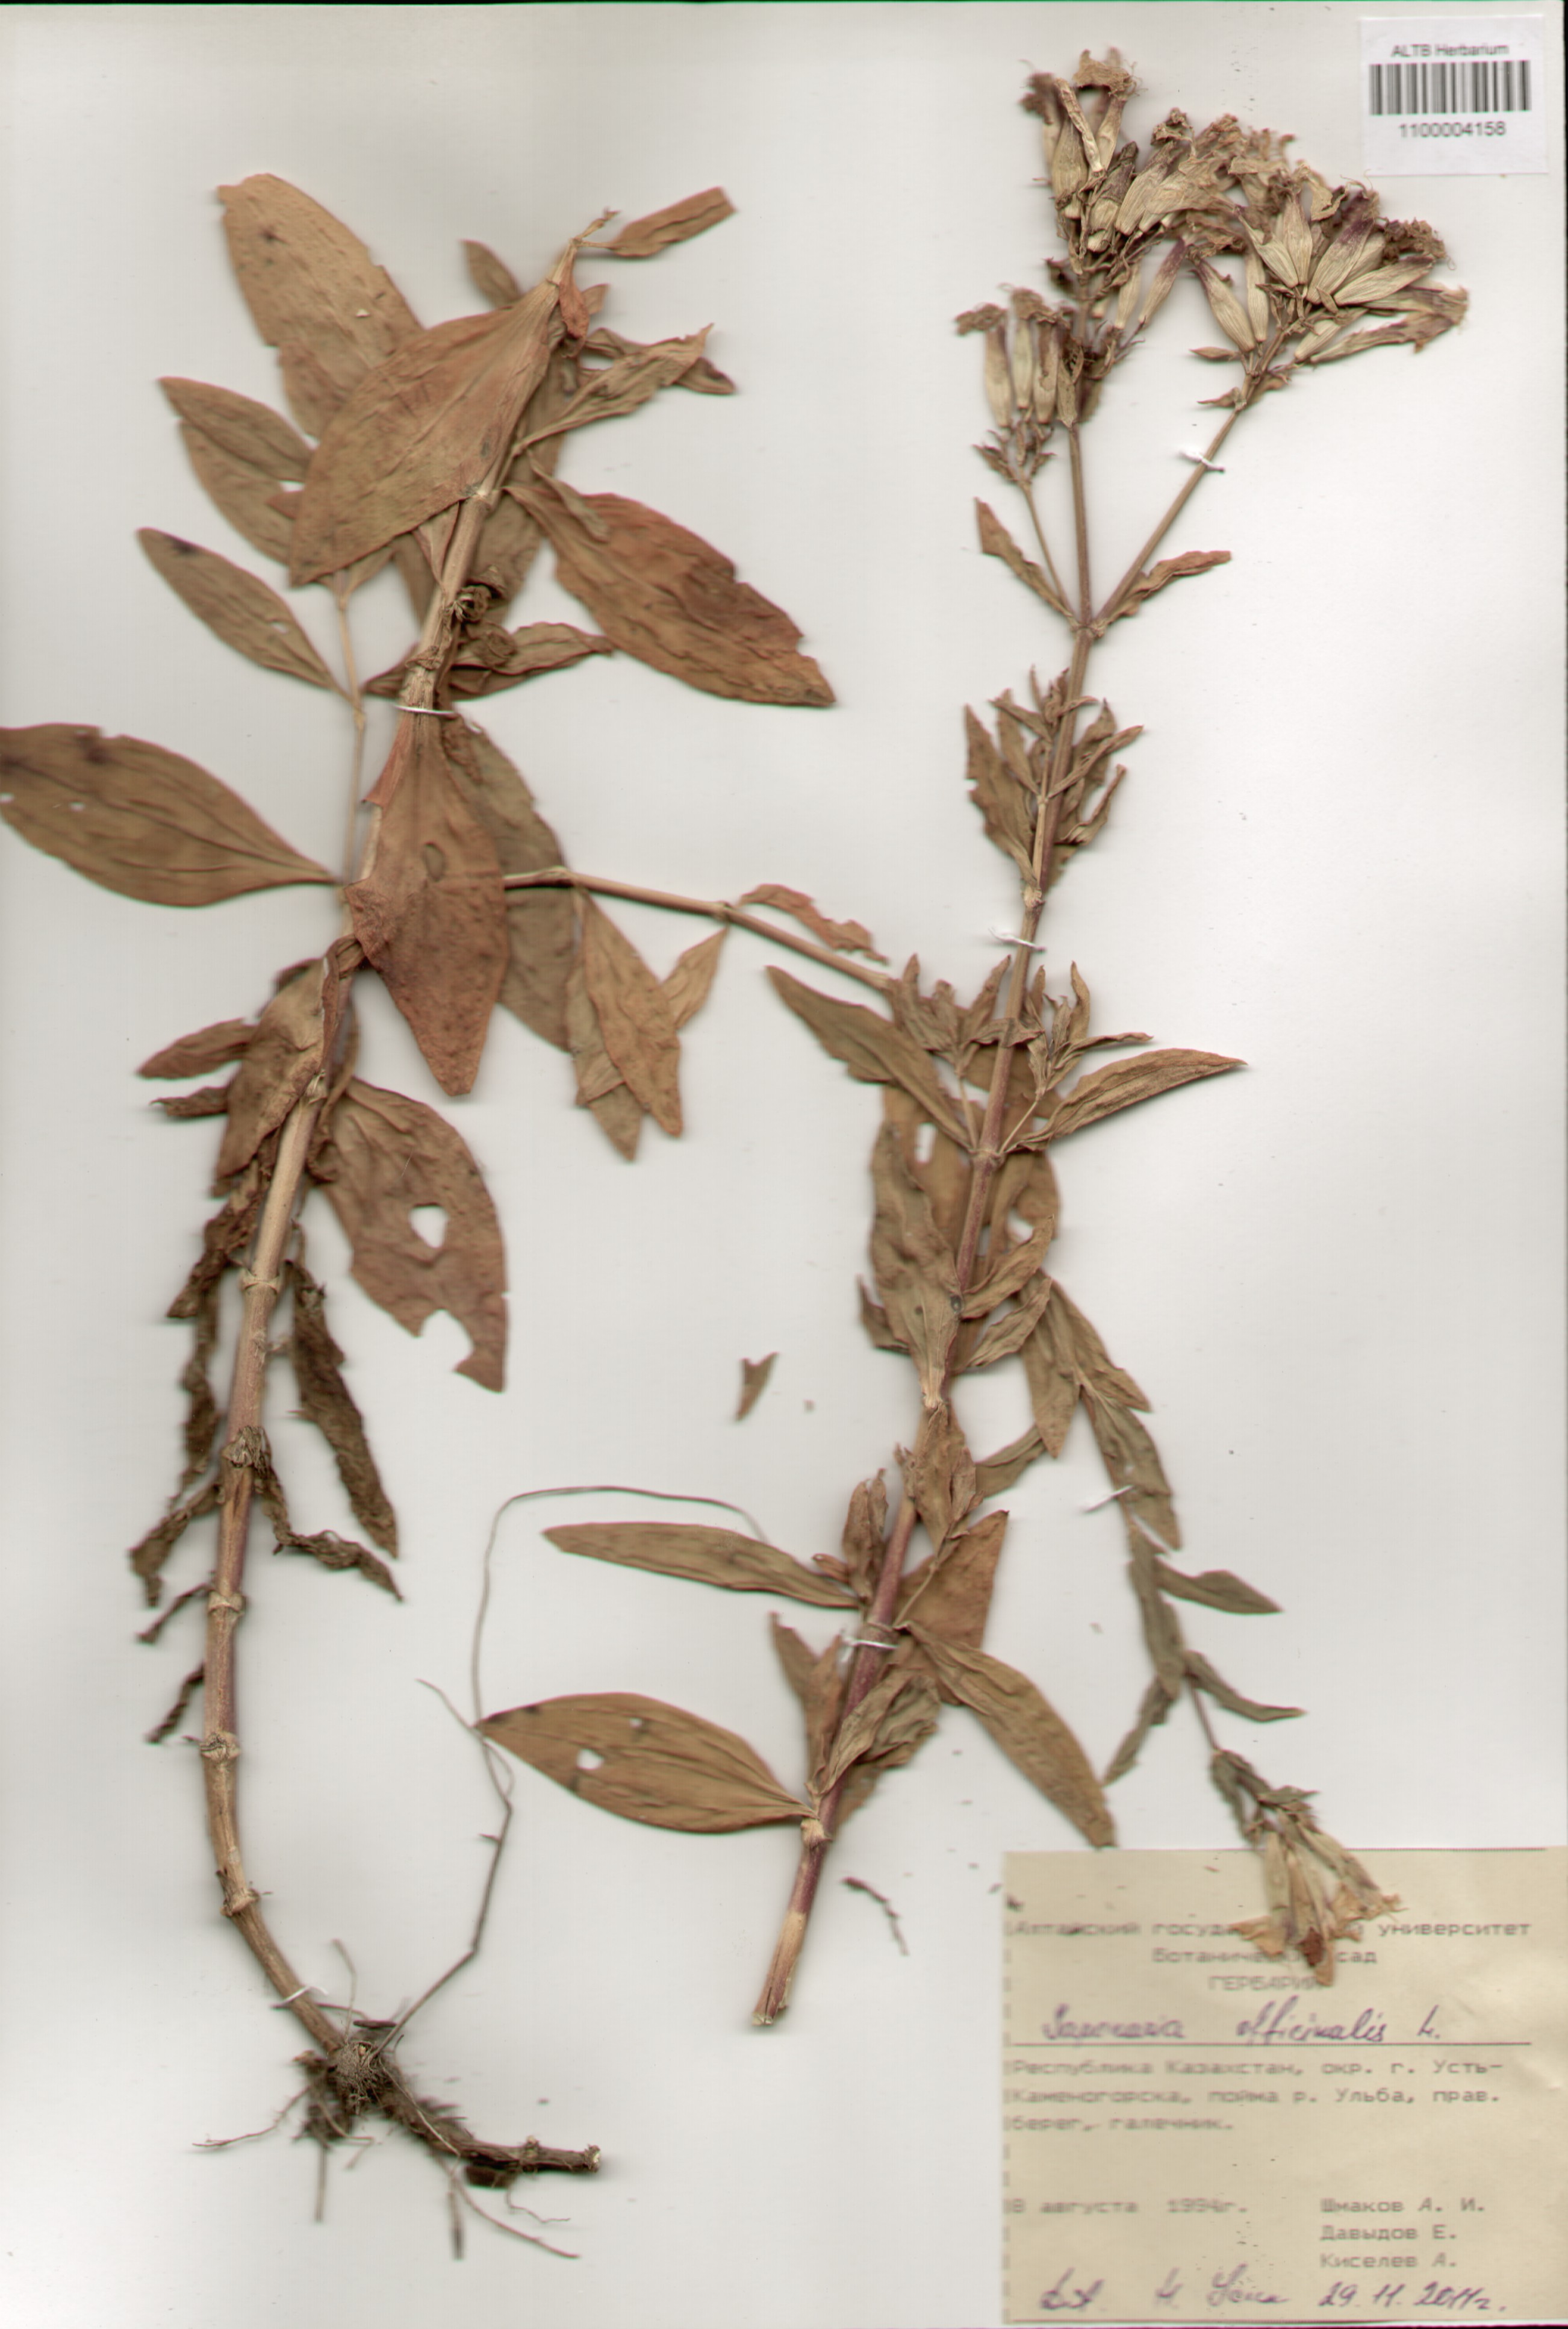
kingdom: Plantae
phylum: Tracheophyta
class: Magnoliopsida
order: Caryophyllales
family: Caryophyllaceae
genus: Saponaria
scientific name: Saponaria officinalis
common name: Soapwort
